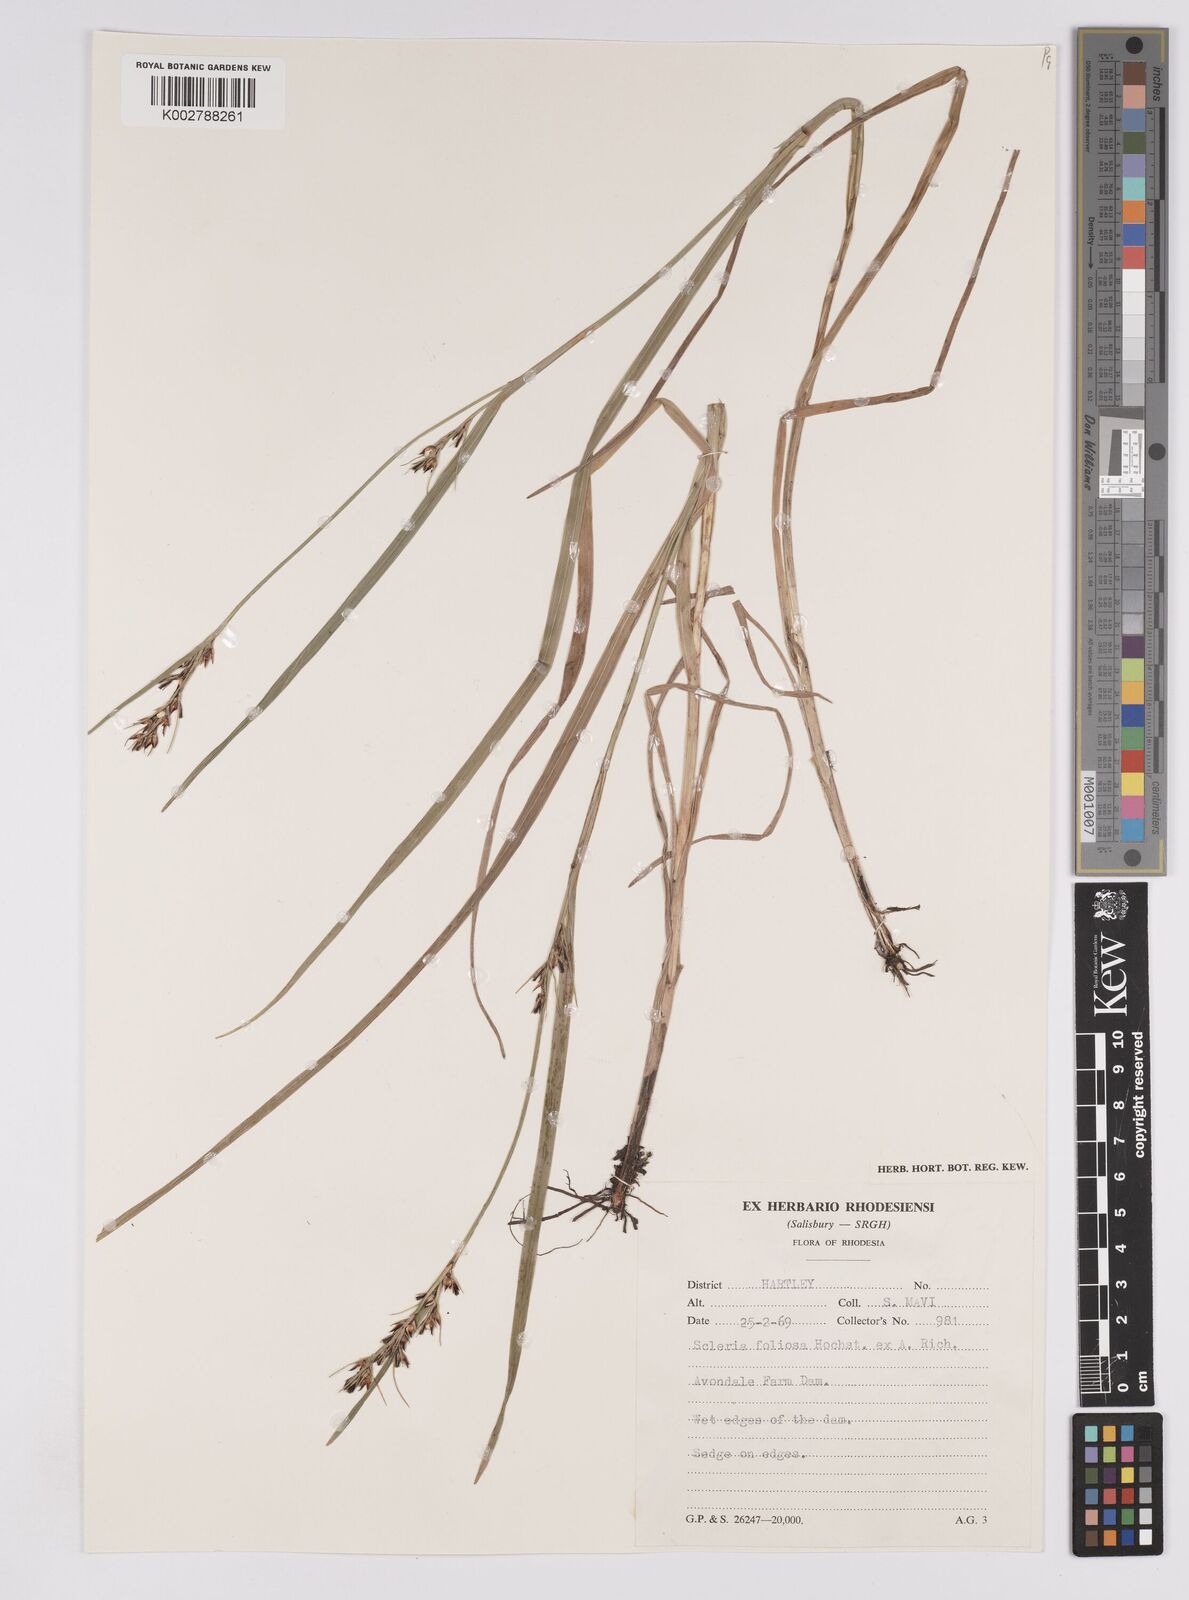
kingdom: Plantae
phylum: Tracheophyta
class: Liliopsida
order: Poales
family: Cyperaceae
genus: Scleria
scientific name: Scleria foliosa
